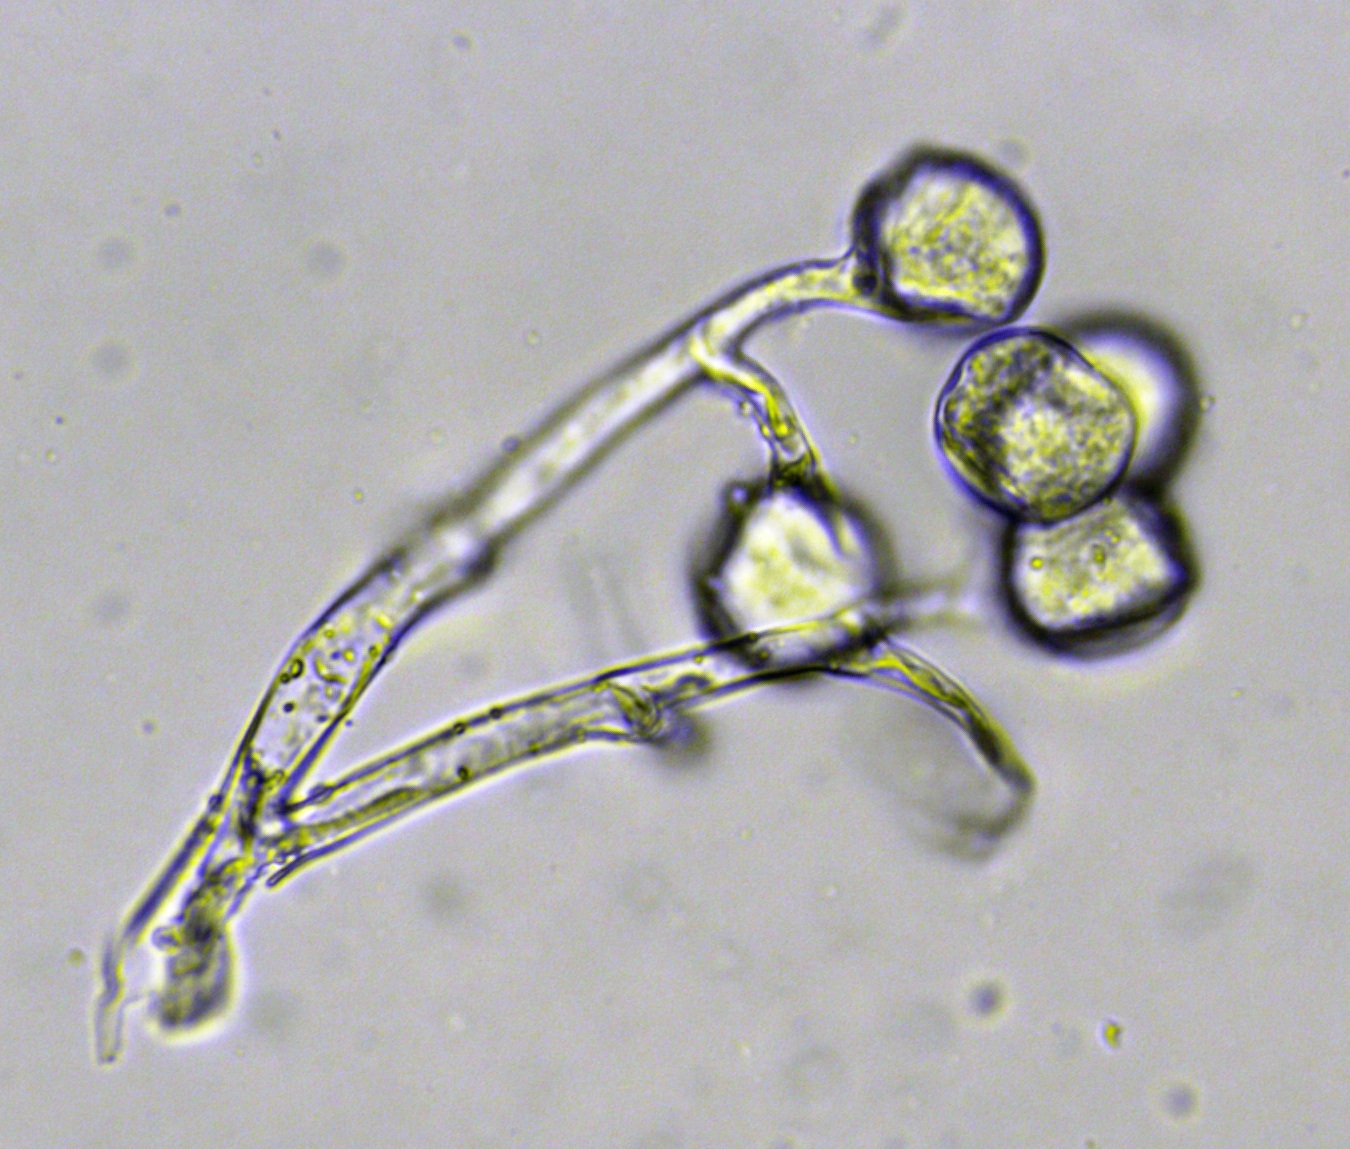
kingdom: Chromista
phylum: Oomycota
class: Peronosporea
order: Peronosporales
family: Peronosporaceae
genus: Peronospora
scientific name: Peronospora farinosa
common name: Beet downy mildew
